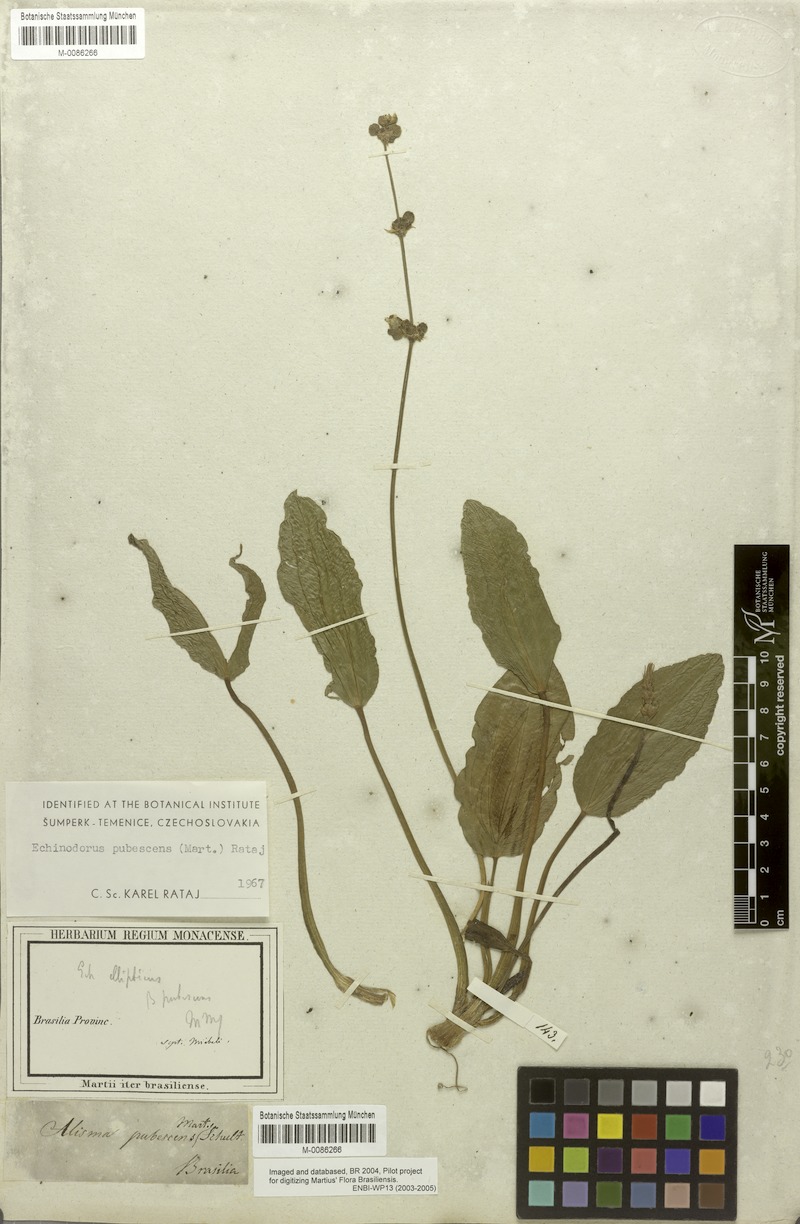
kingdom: Plantae
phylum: Tracheophyta
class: Liliopsida
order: Alismatales
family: Alismataceae
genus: Aquarius
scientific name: Aquarius pubescens
